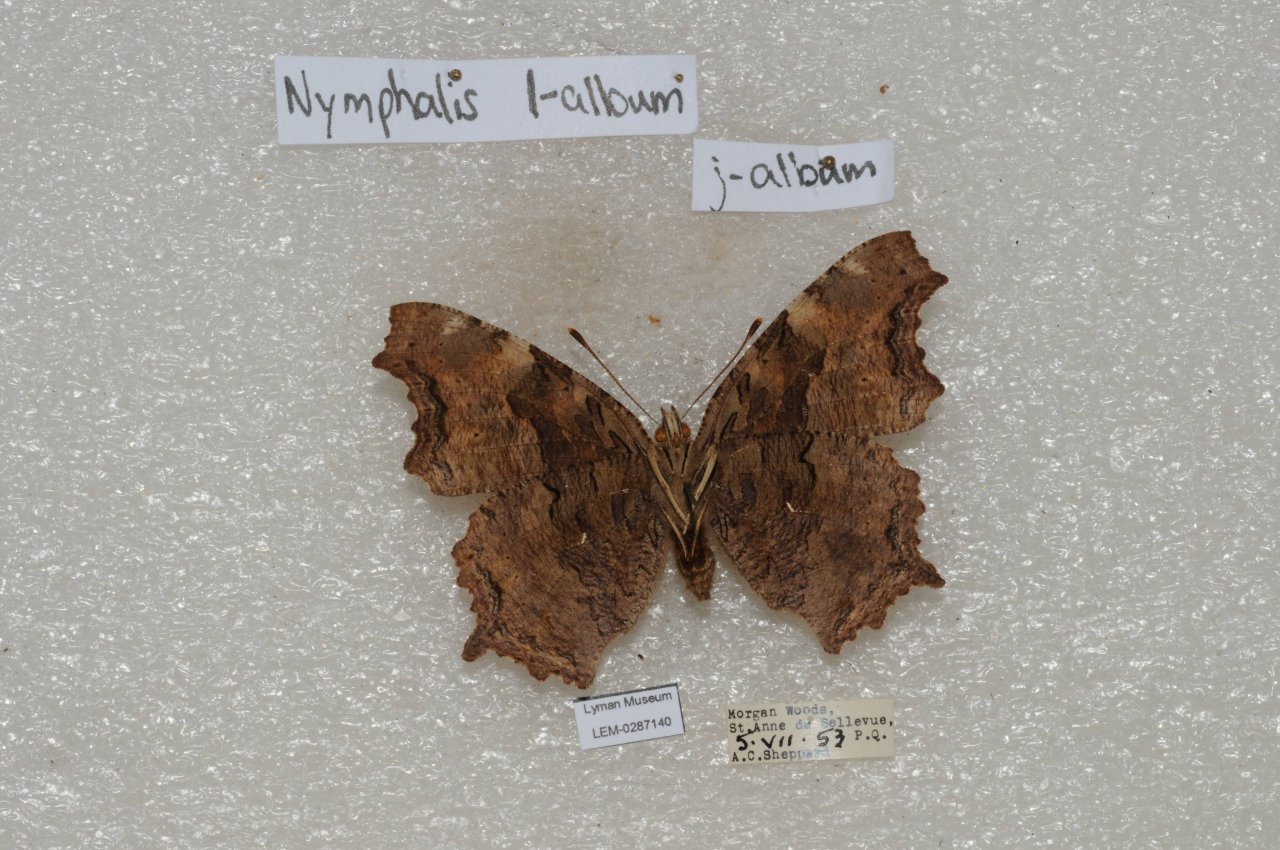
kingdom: Animalia
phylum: Arthropoda
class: Insecta
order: Lepidoptera
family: Nymphalidae
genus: Polygonia
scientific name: Polygonia vaualbum
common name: Compton Tortoiseshell
